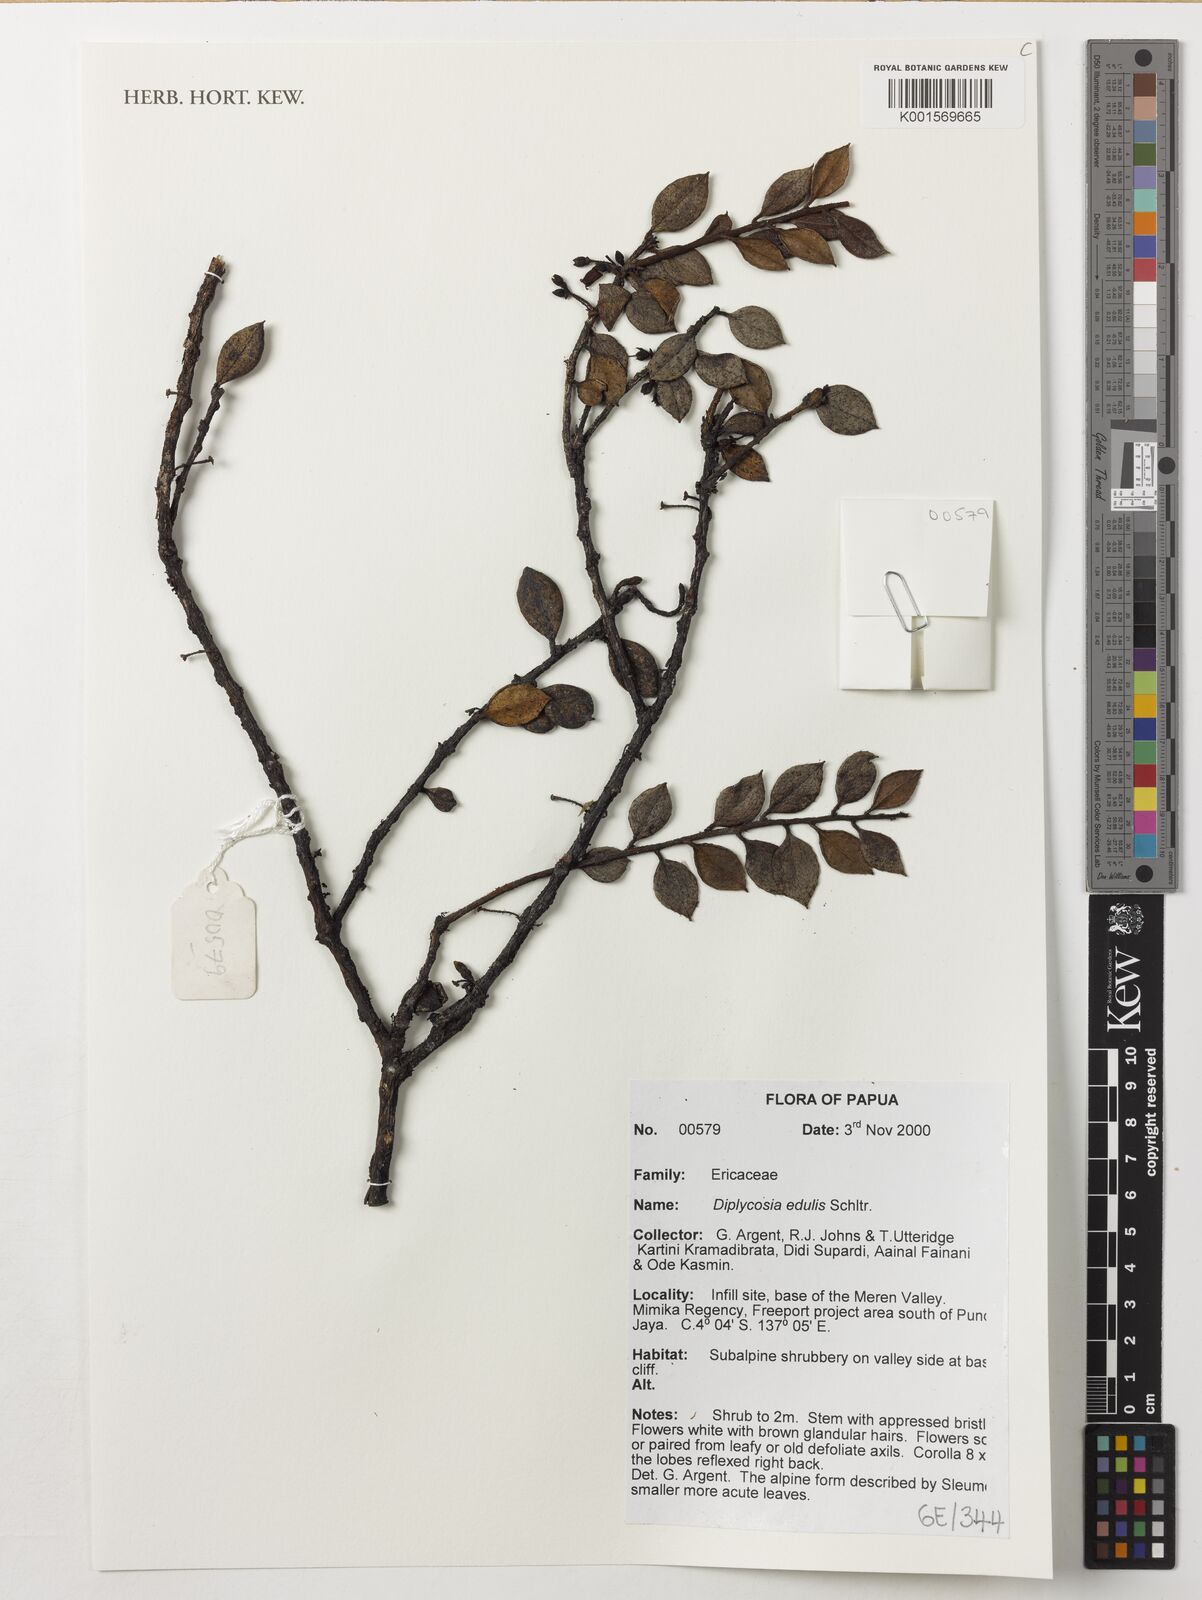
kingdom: Plantae
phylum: Tracheophyta
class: Magnoliopsida
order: Ericales
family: Ericaceae
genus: Gaultheria
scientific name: Gaultheria edulis
